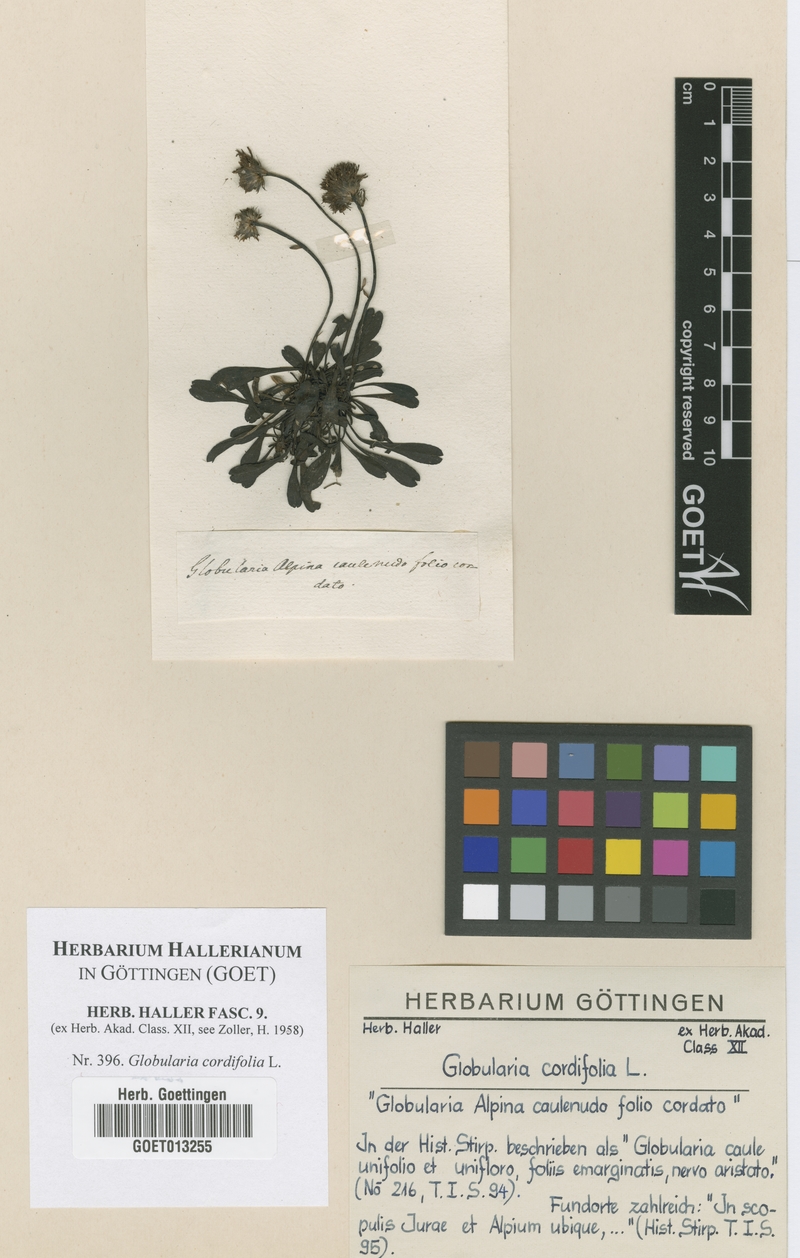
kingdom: Plantae
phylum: Tracheophyta
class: Magnoliopsida
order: Lamiales
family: Plantaginaceae
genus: Globularia
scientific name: Globularia cordifolia
